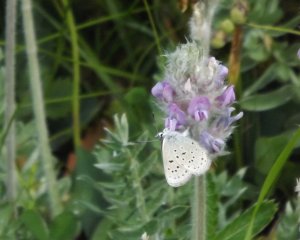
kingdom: Animalia
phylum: Arthropoda
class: Insecta
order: Lepidoptera
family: Lycaenidae
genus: Plebejus
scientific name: Plebejus saepiolus
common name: Greenish Blue
